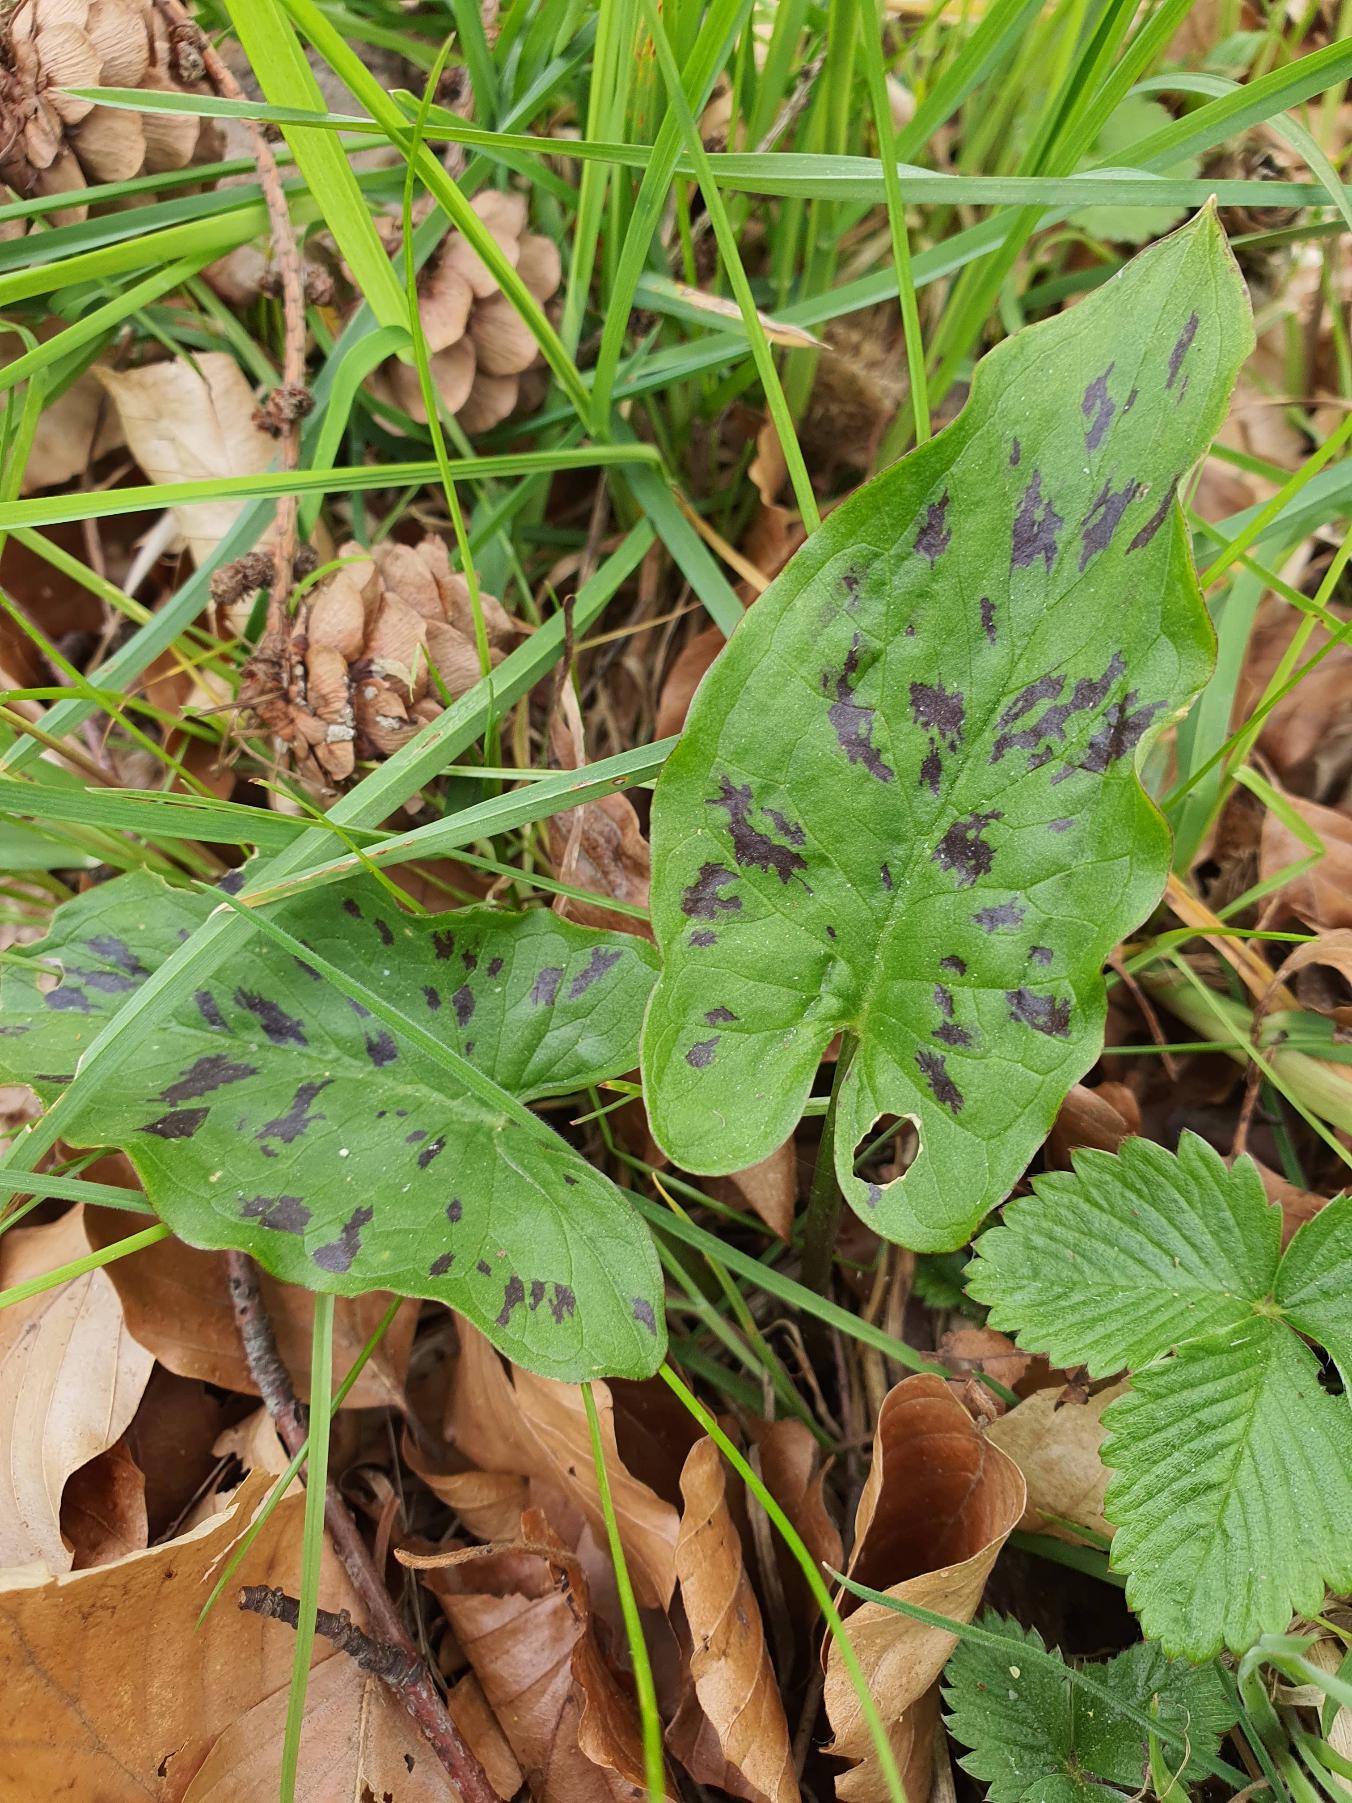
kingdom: Plantae
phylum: Tracheophyta
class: Liliopsida
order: Alismatales
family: Araceae
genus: Arum
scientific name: Arum maculatum
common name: Plettet arum
